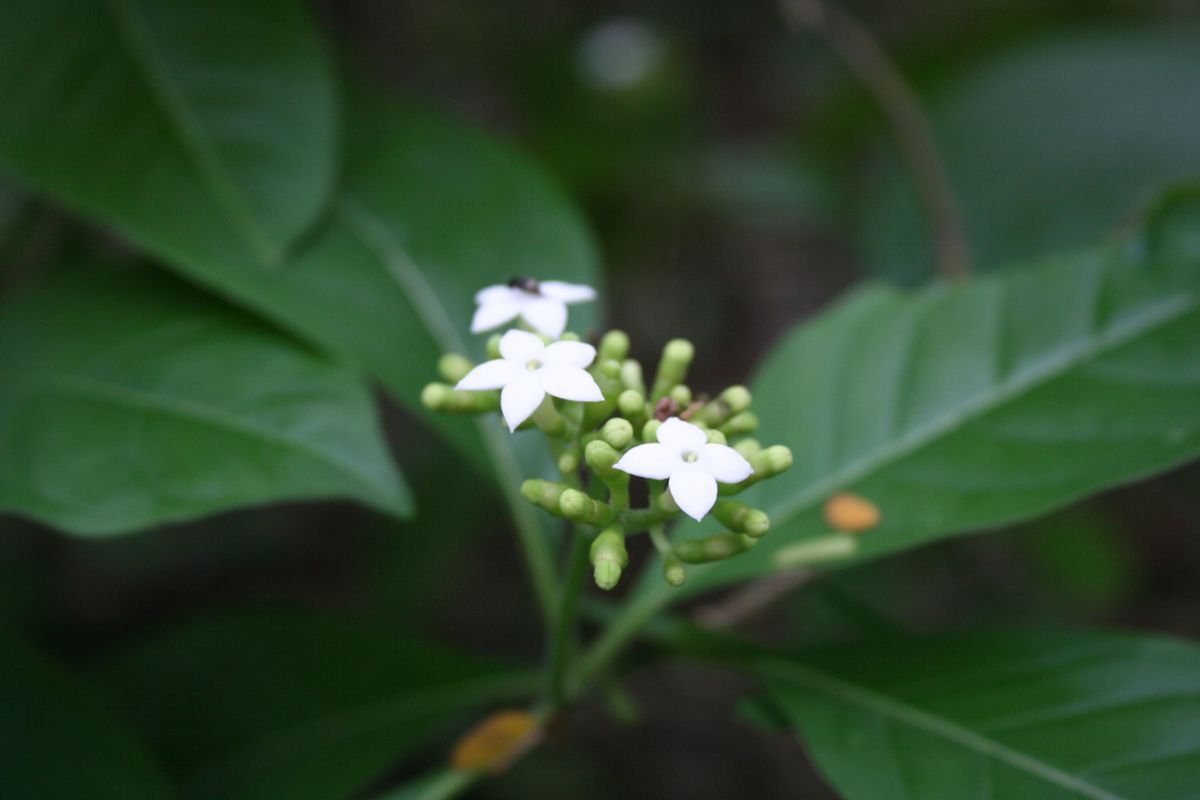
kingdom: Plantae
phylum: Tracheophyta
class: Magnoliopsida
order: Gentianales
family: Rubiaceae
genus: Psychotria
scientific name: Psychotria
